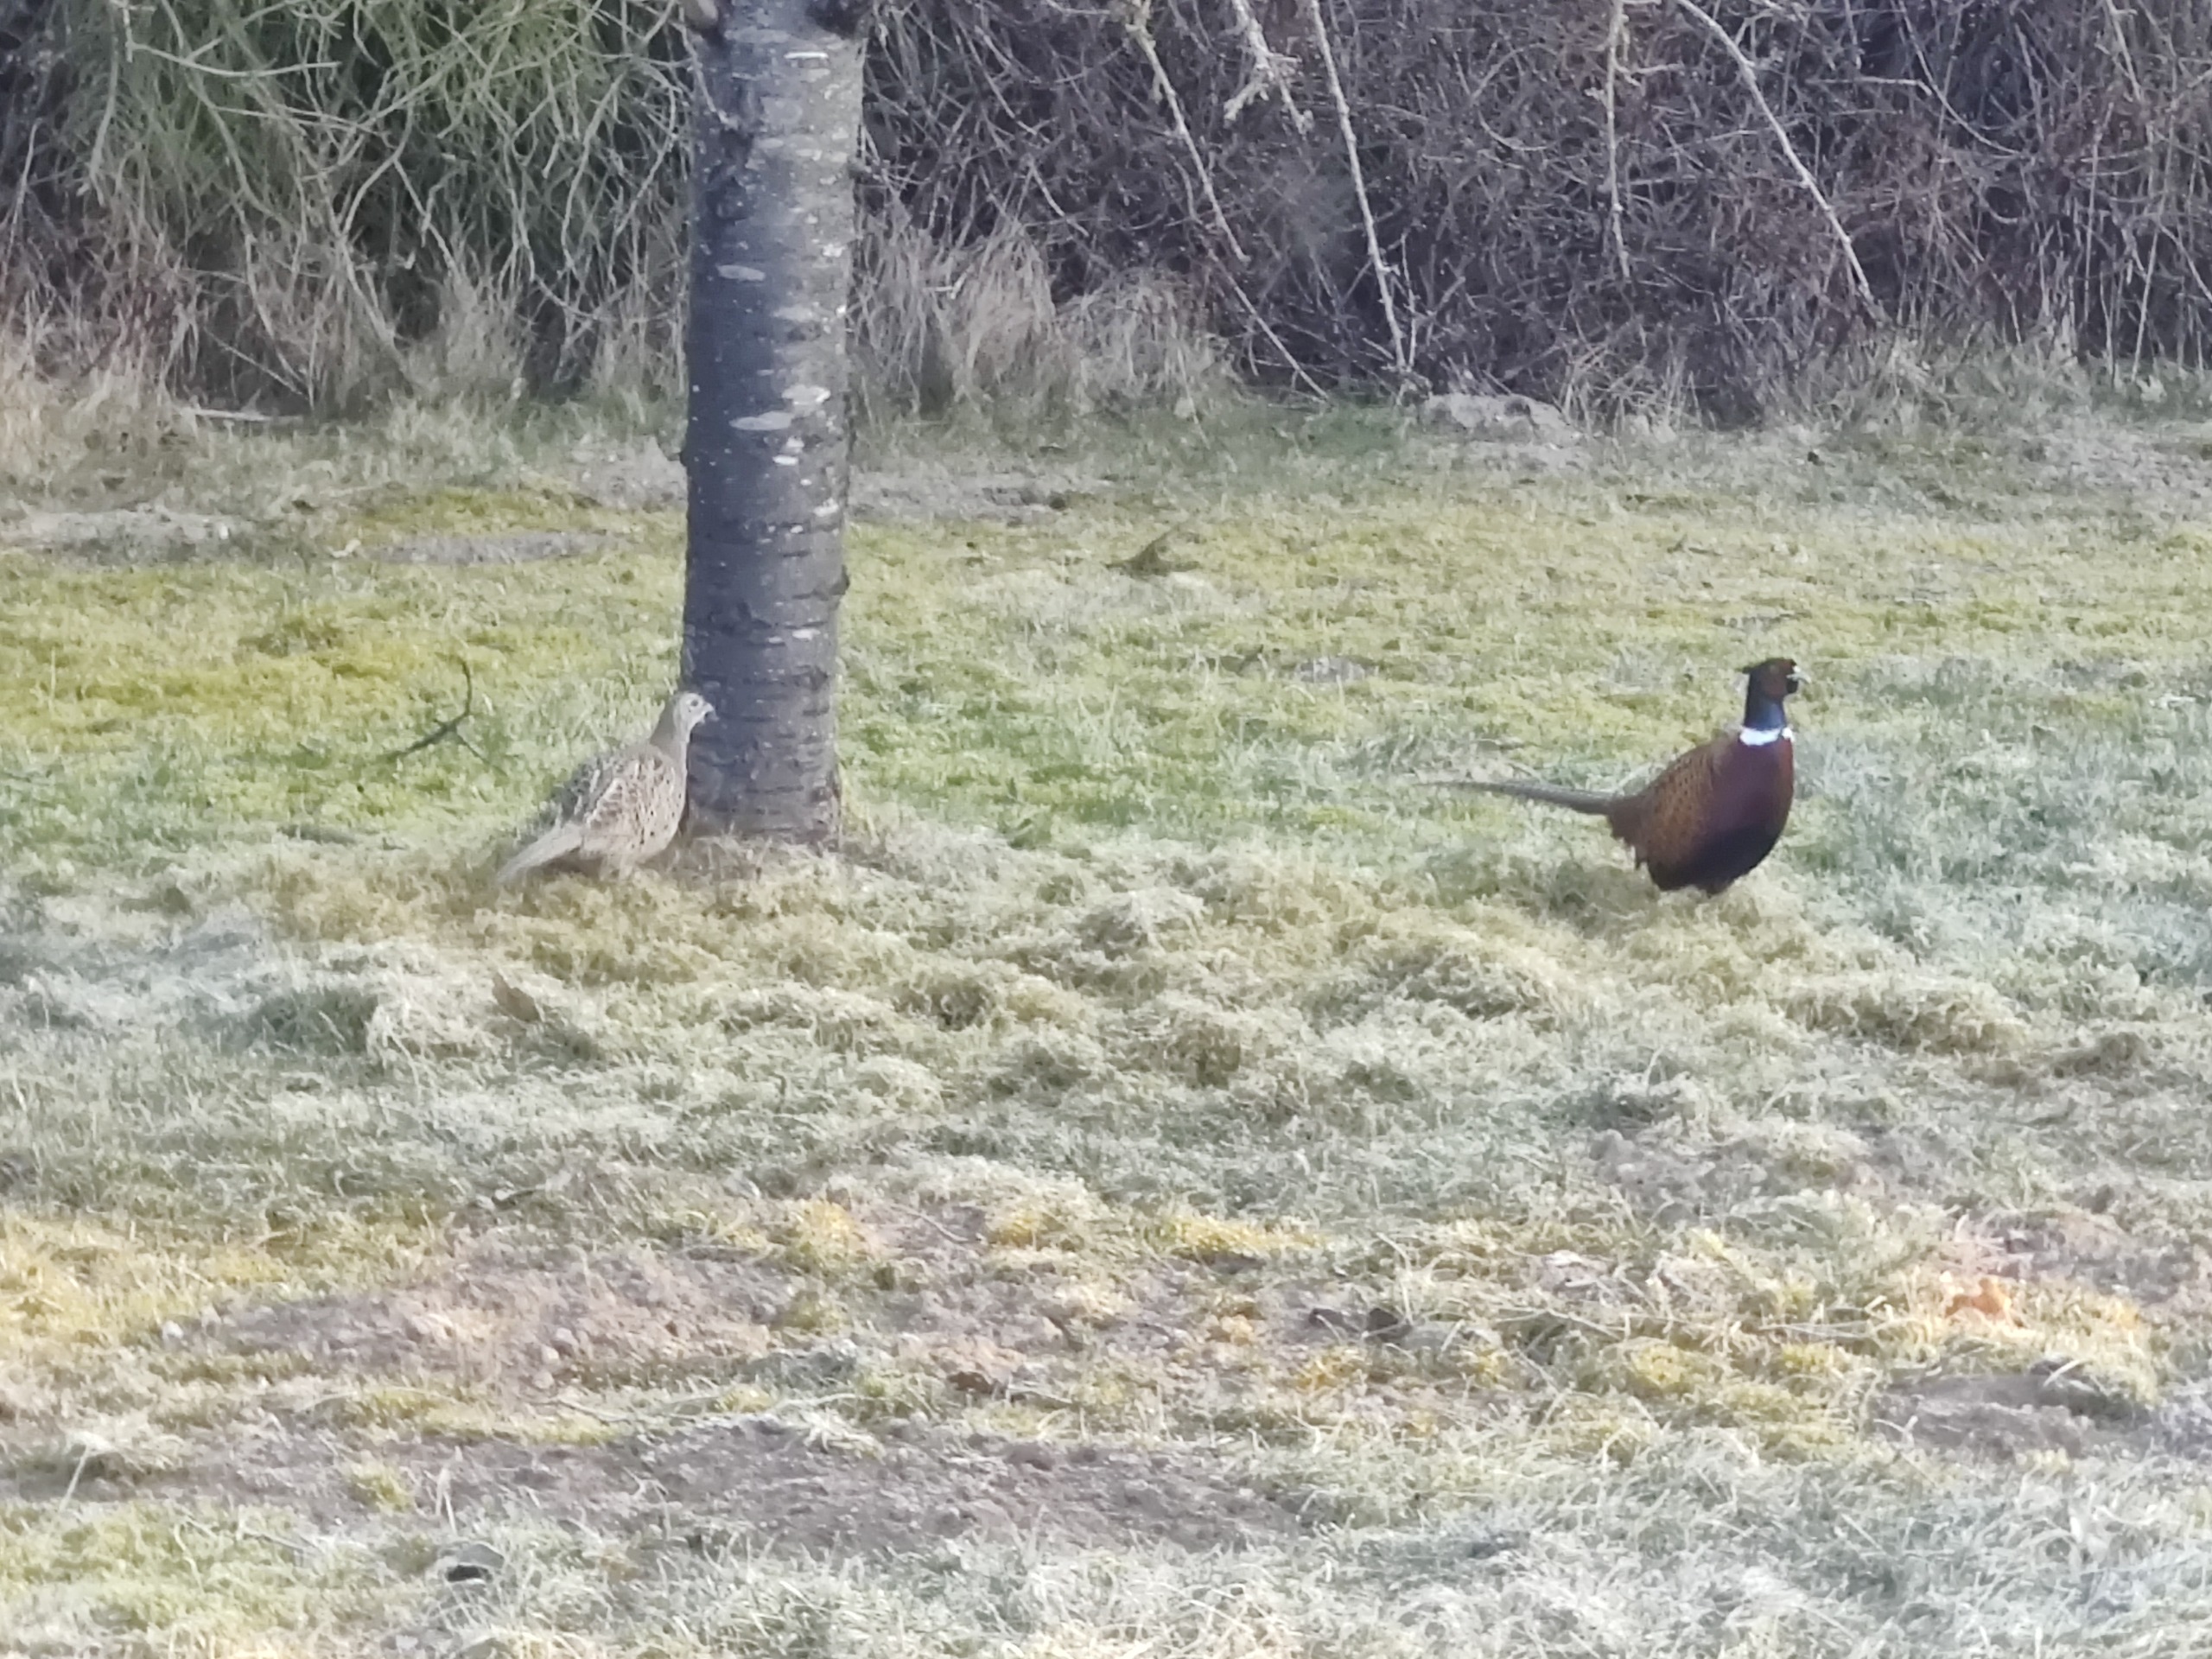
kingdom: Animalia
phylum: Chordata
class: Aves
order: Galliformes
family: Phasianidae
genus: Phasianus
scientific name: Phasianus colchicus
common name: Fasan
